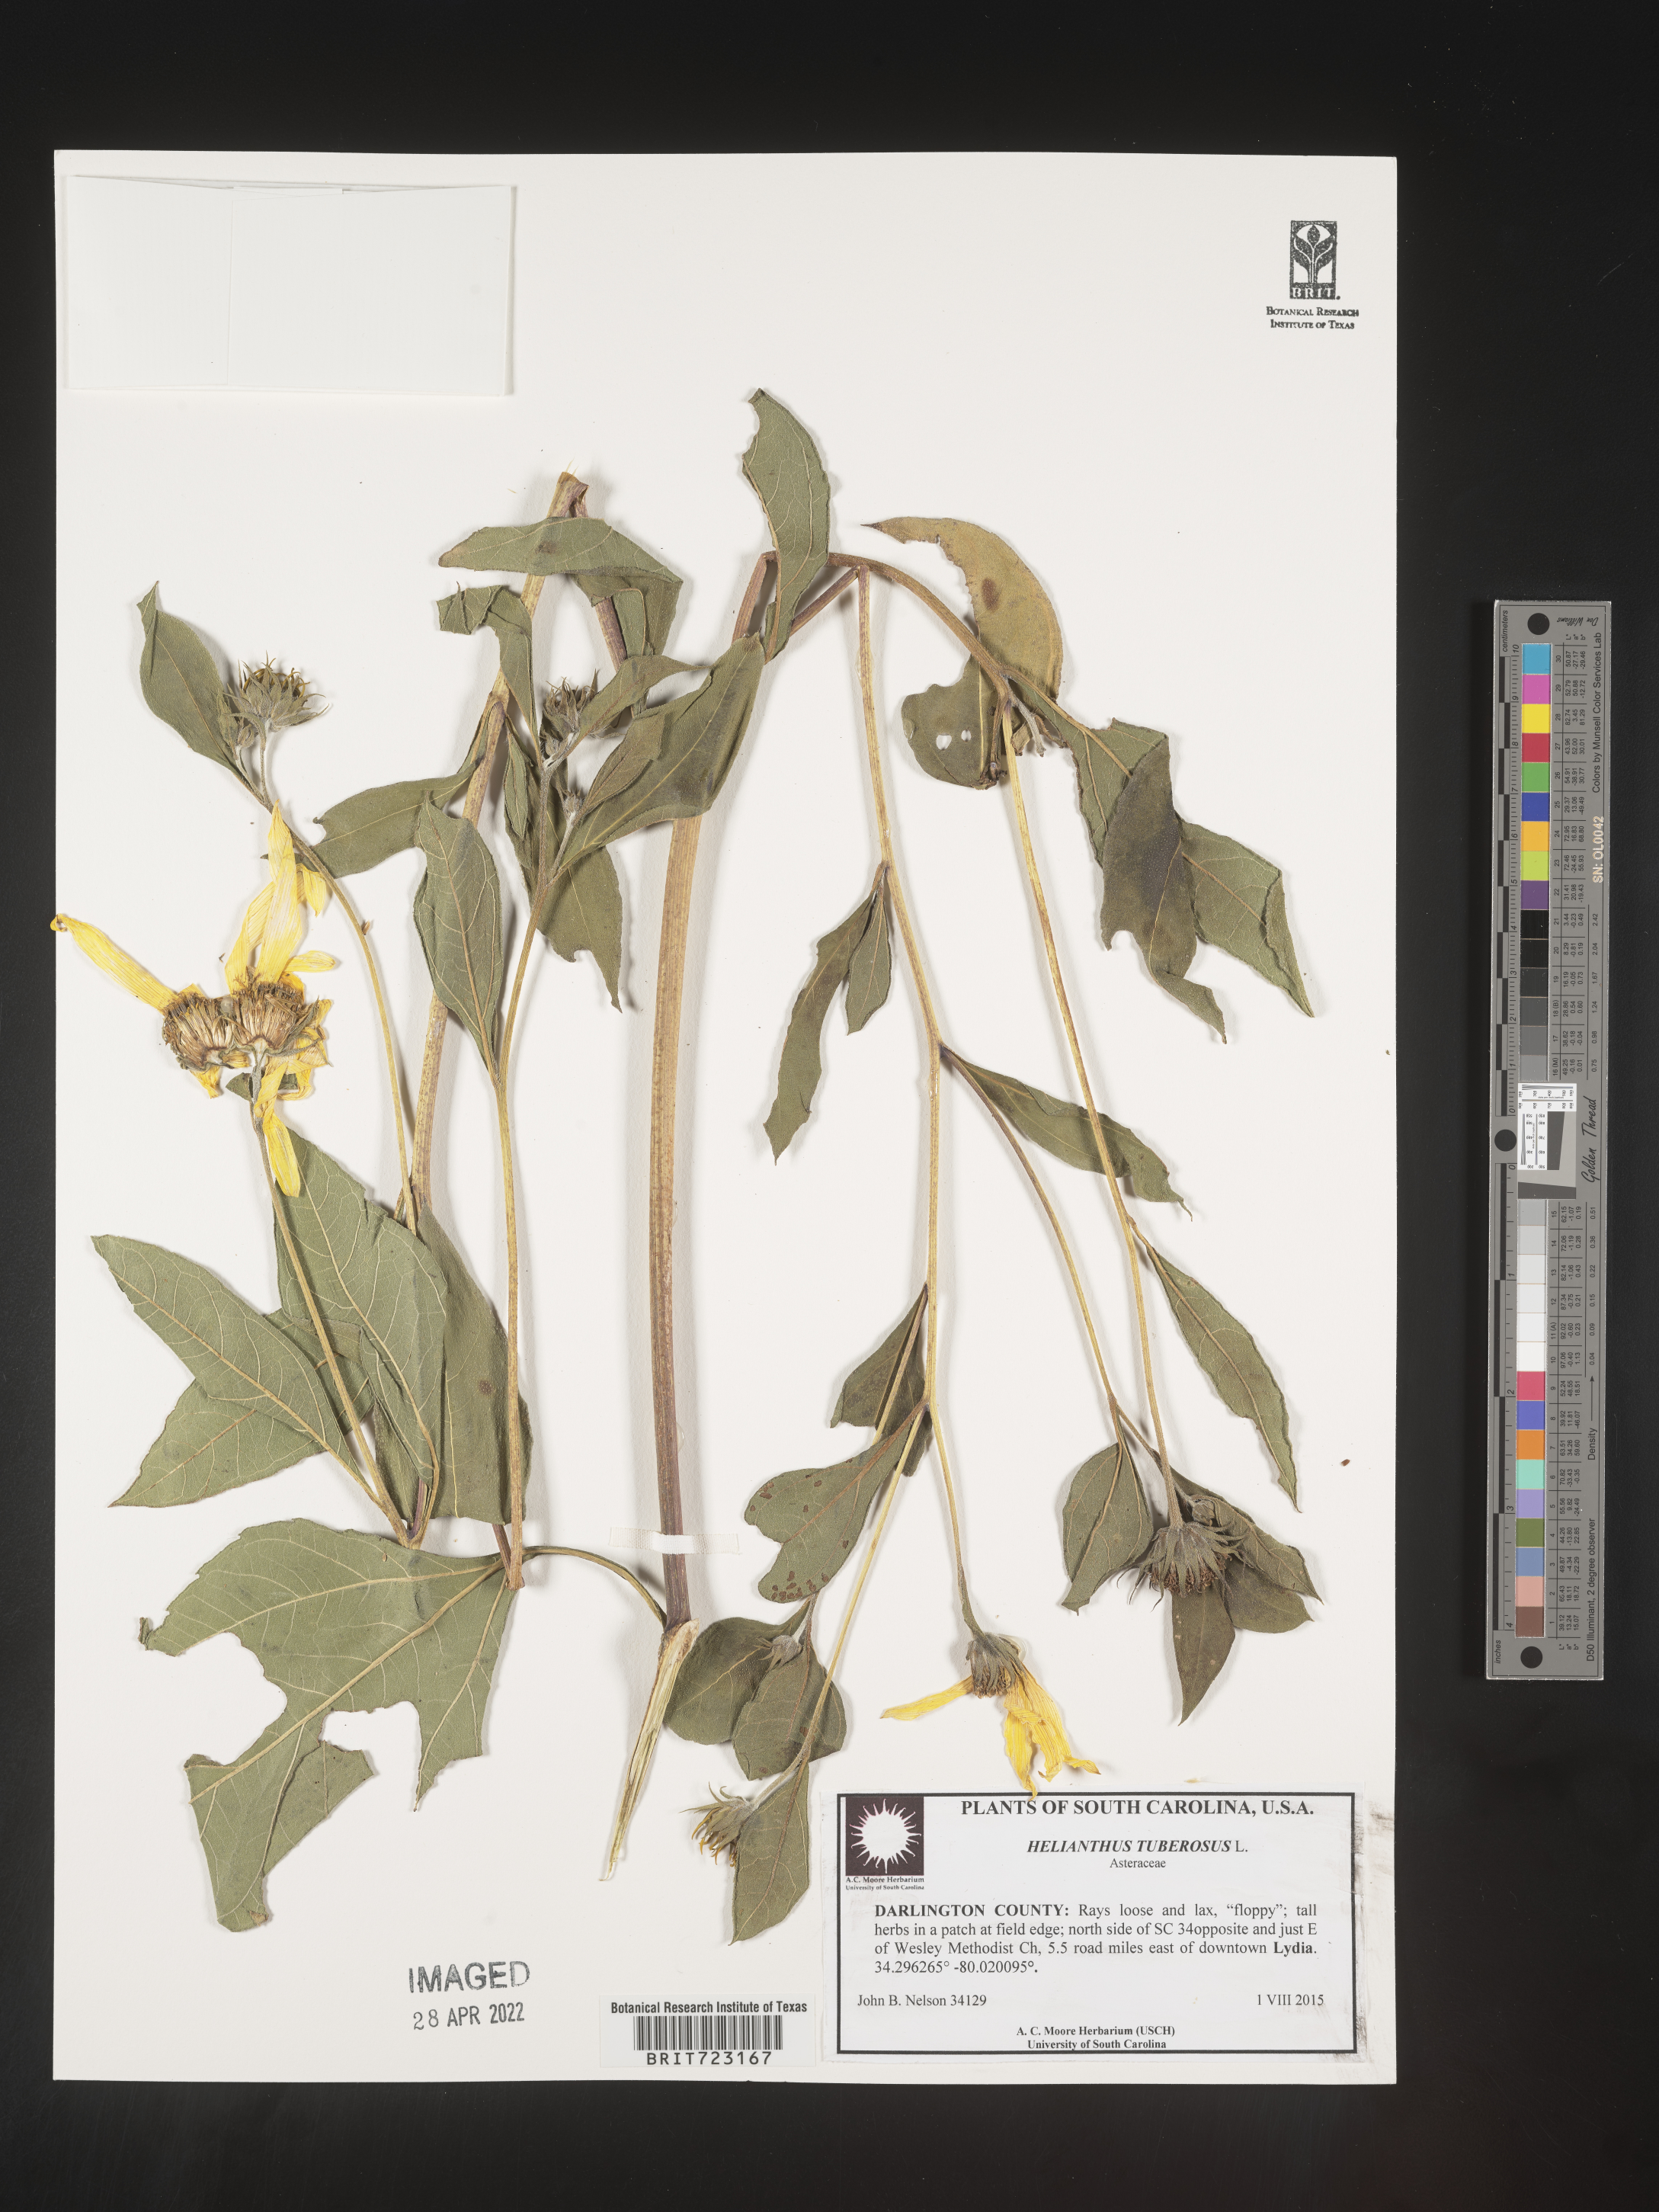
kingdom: Plantae
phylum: Tracheophyta
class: Magnoliopsida
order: Asterales
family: Asteraceae
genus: Helianthus
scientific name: Helianthus tuberosus
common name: Jerusalem artichoke
